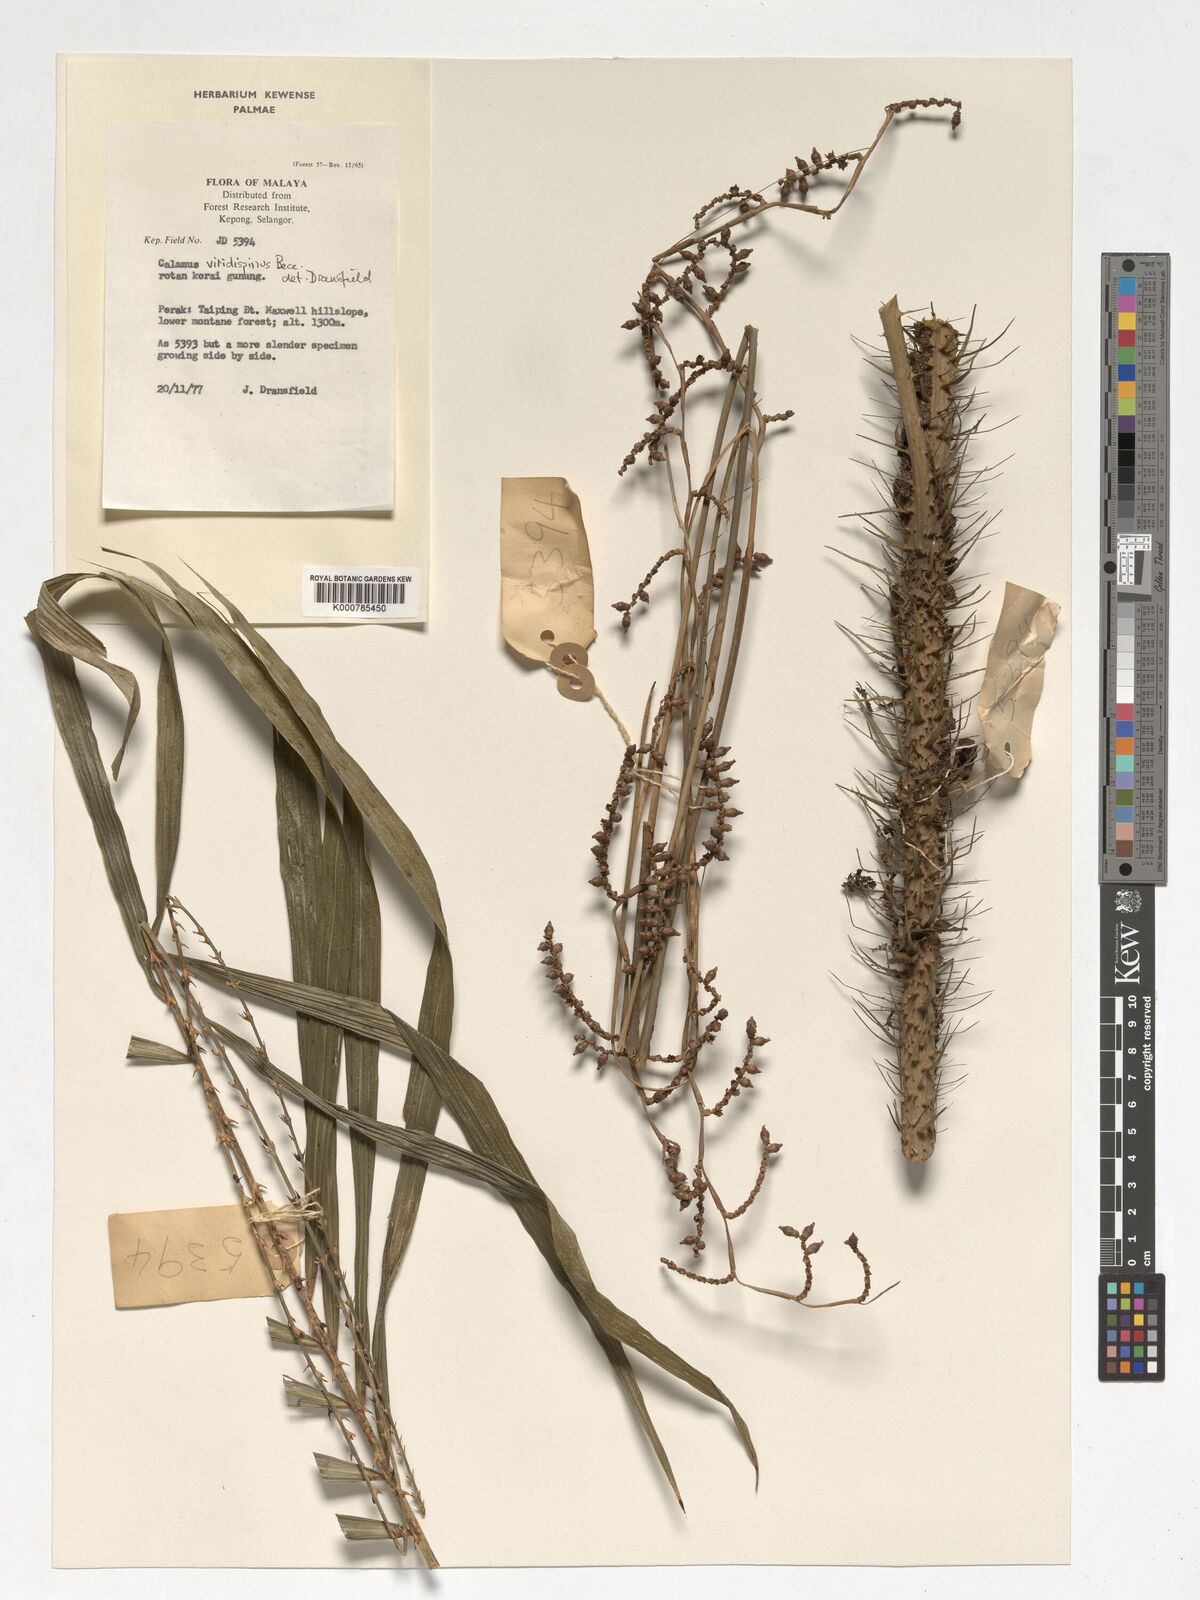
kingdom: Plantae
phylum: Tracheophyta
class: Liliopsida
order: Arecales
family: Arecaceae
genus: Calamus
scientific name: Calamus helferianus
